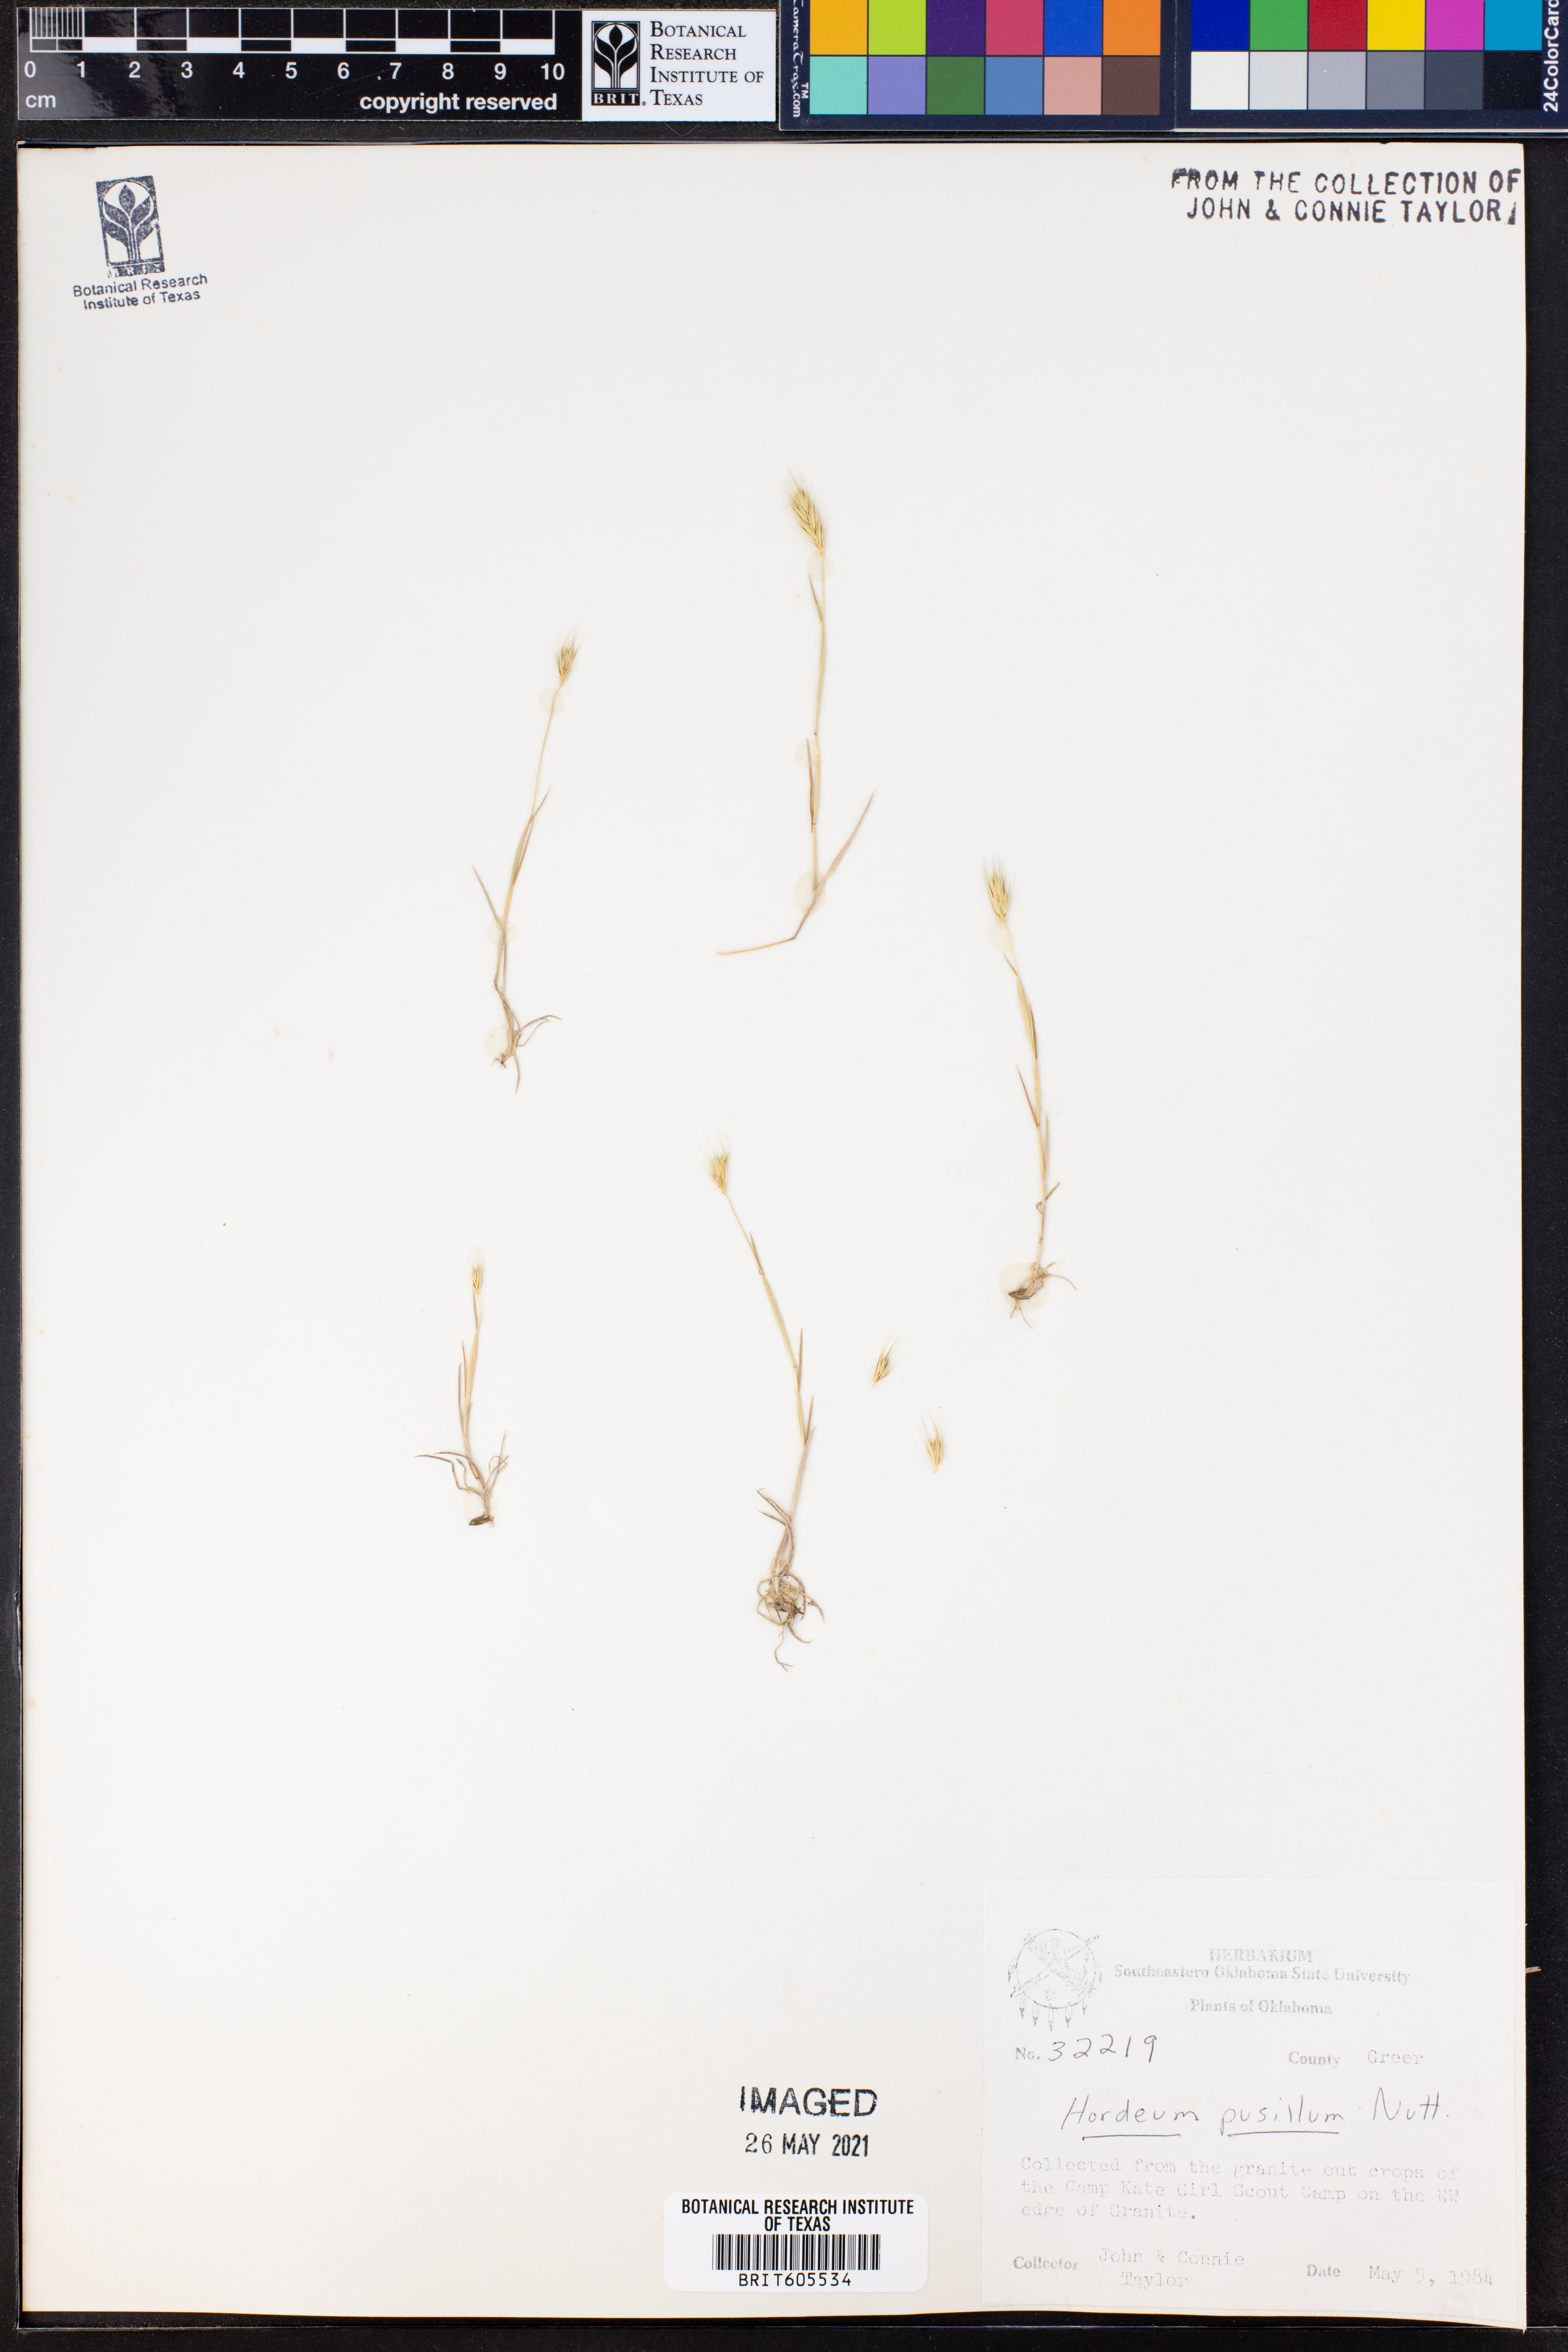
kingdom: Plantae
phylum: Tracheophyta
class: Liliopsida
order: Poales
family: Poaceae
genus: Hordeum
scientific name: Hordeum pusillum
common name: Little barley
